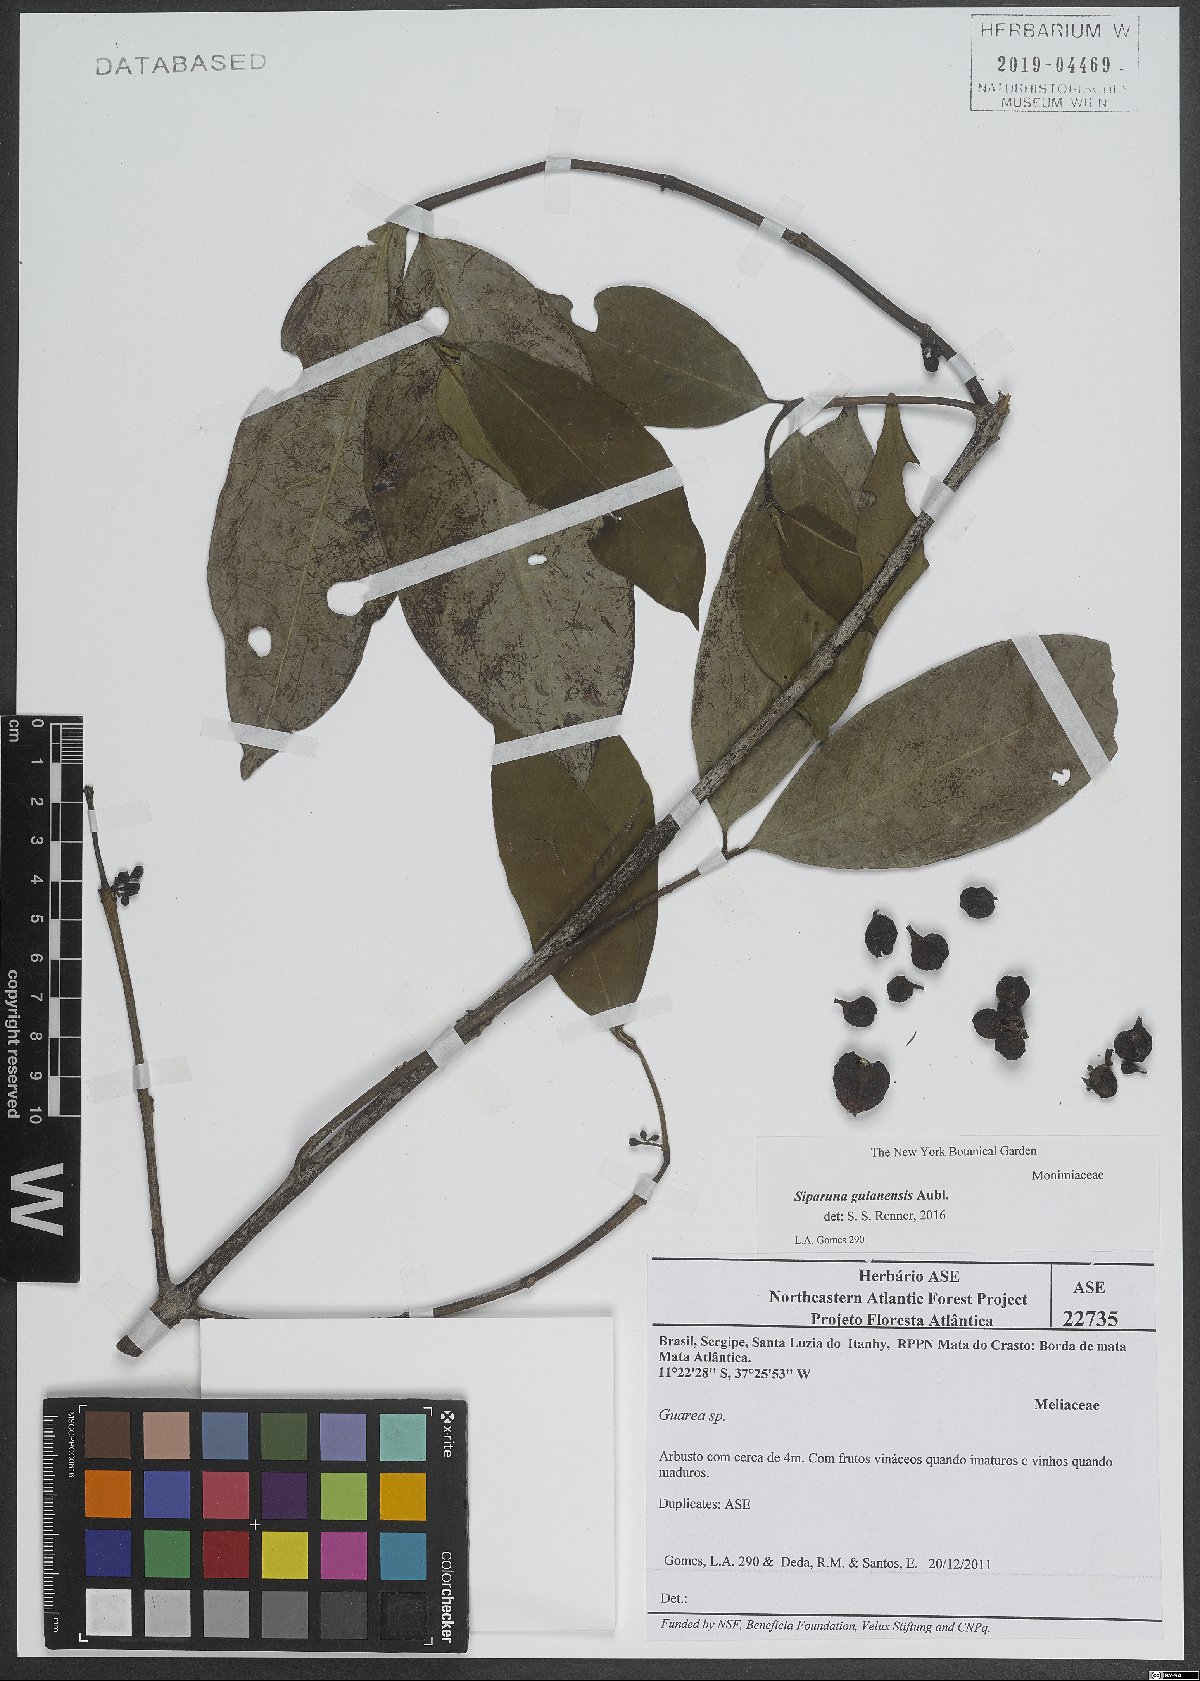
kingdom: Plantae
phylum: Tracheophyta
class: Magnoliopsida
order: Laurales
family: Siparunaceae
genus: Siparuna
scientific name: Siparuna guianensis
